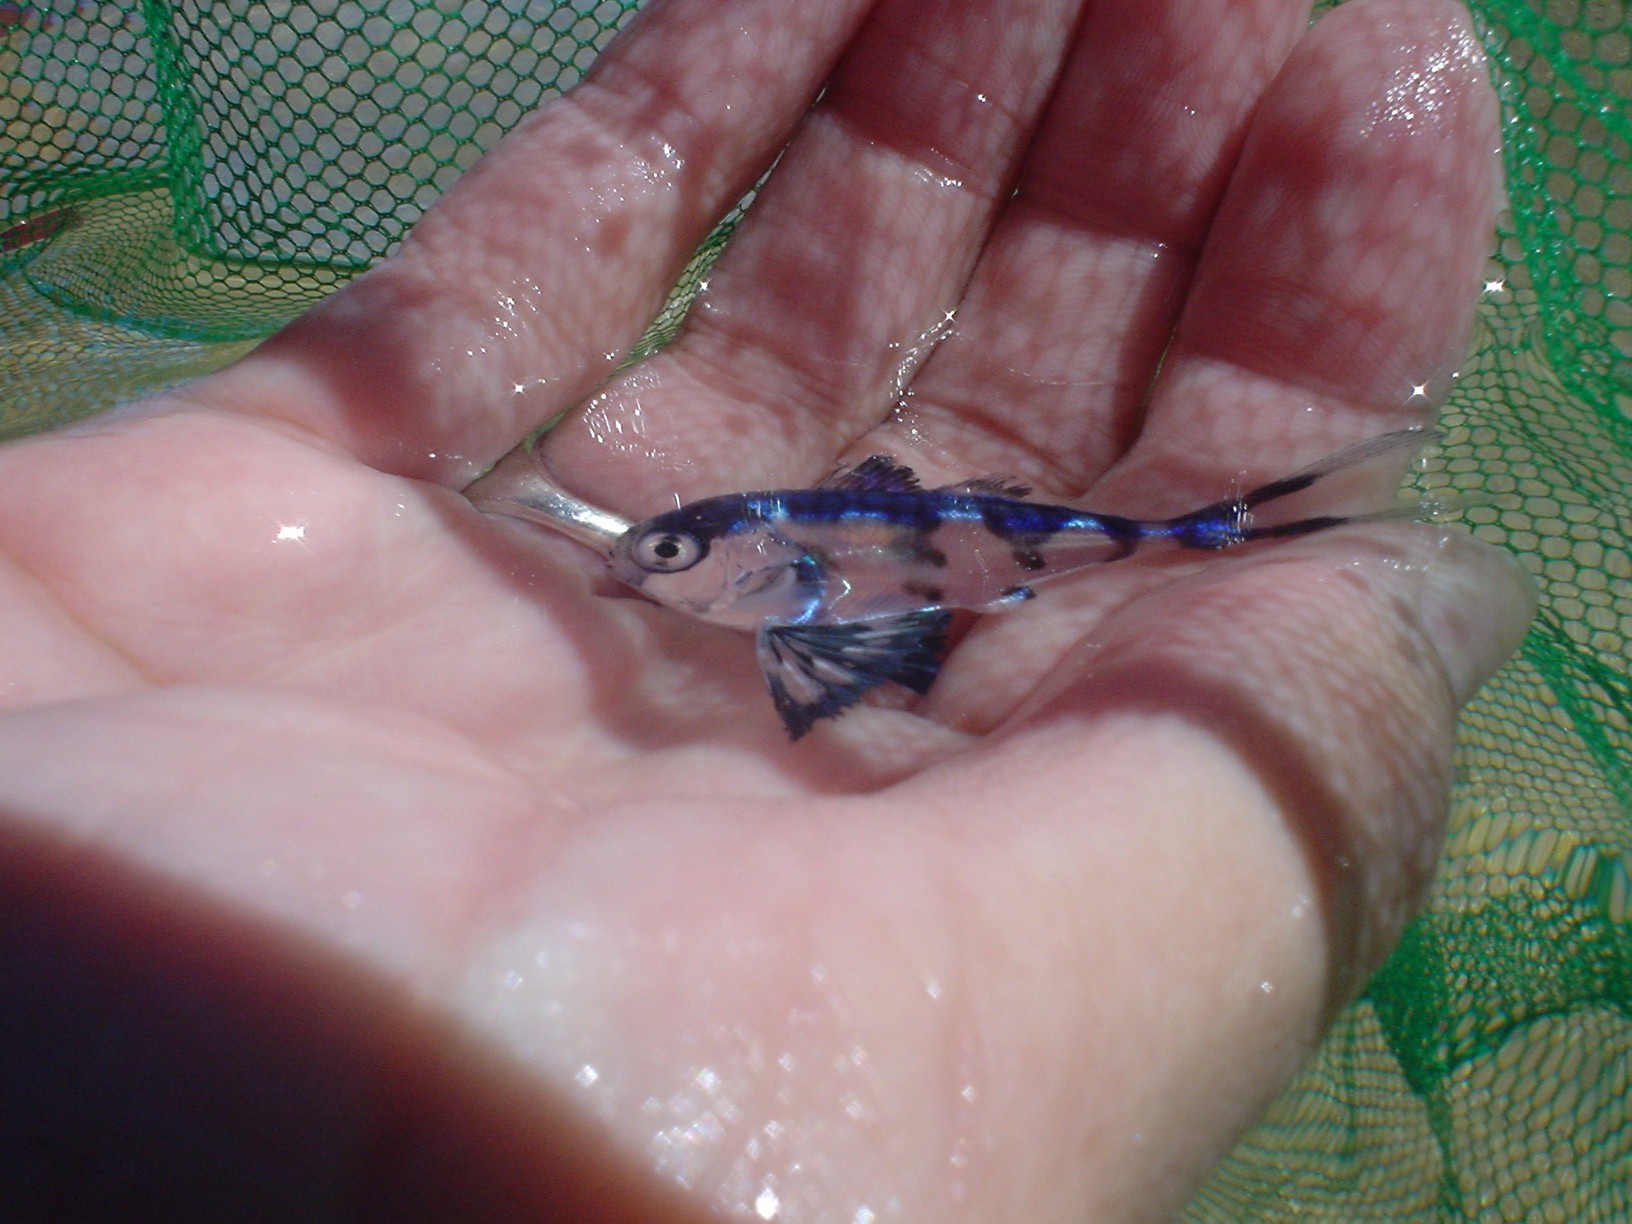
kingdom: Animalia
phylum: Chordata
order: Perciformes
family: Nomeidae
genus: Nomeus
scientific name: Nomeus gronovii
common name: Man-of-war fish
